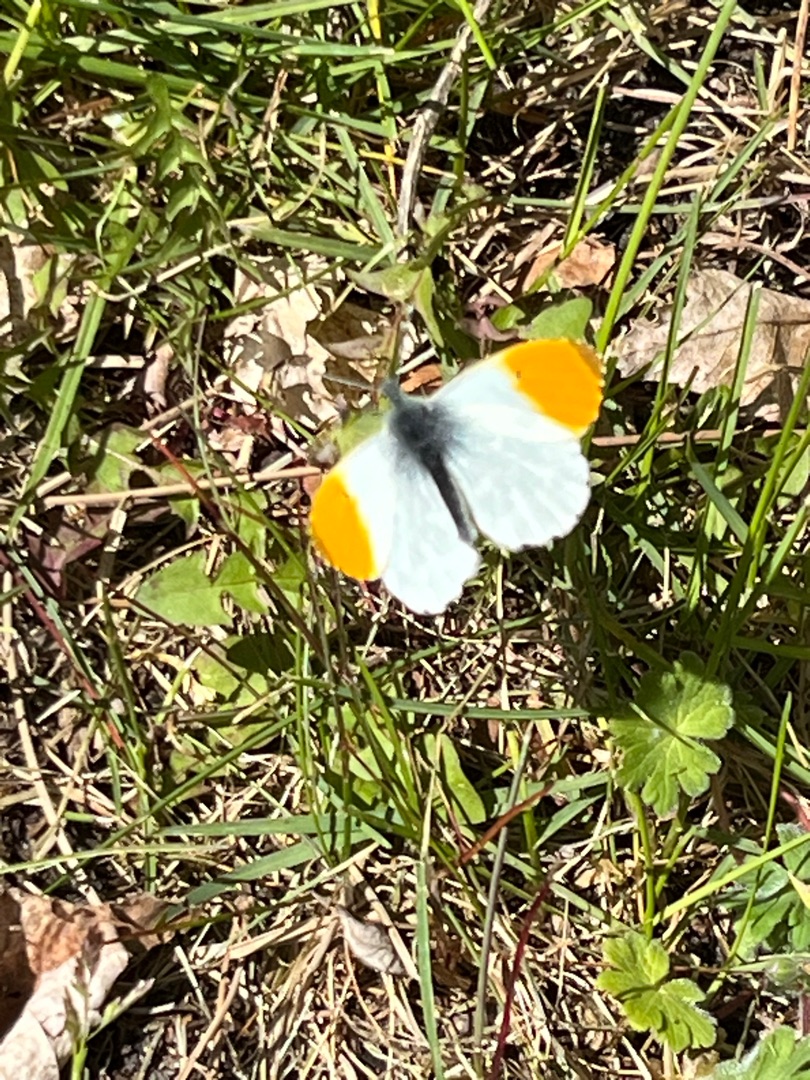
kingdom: Animalia
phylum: Arthropoda
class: Insecta
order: Lepidoptera
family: Pieridae
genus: Anthocharis
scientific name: Anthocharis cardamines
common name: Aurora
